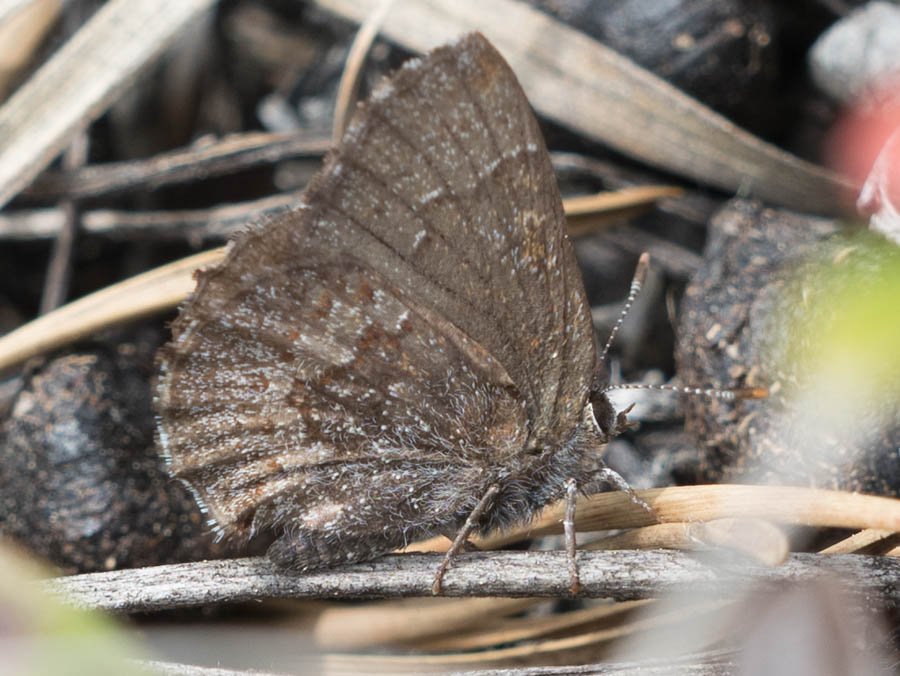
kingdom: Animalia
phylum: Arthropoda
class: Insecta
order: Lepidoptera
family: Lycaenidae
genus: Callophrys
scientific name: Callophrys polios
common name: Hoary Elfin
